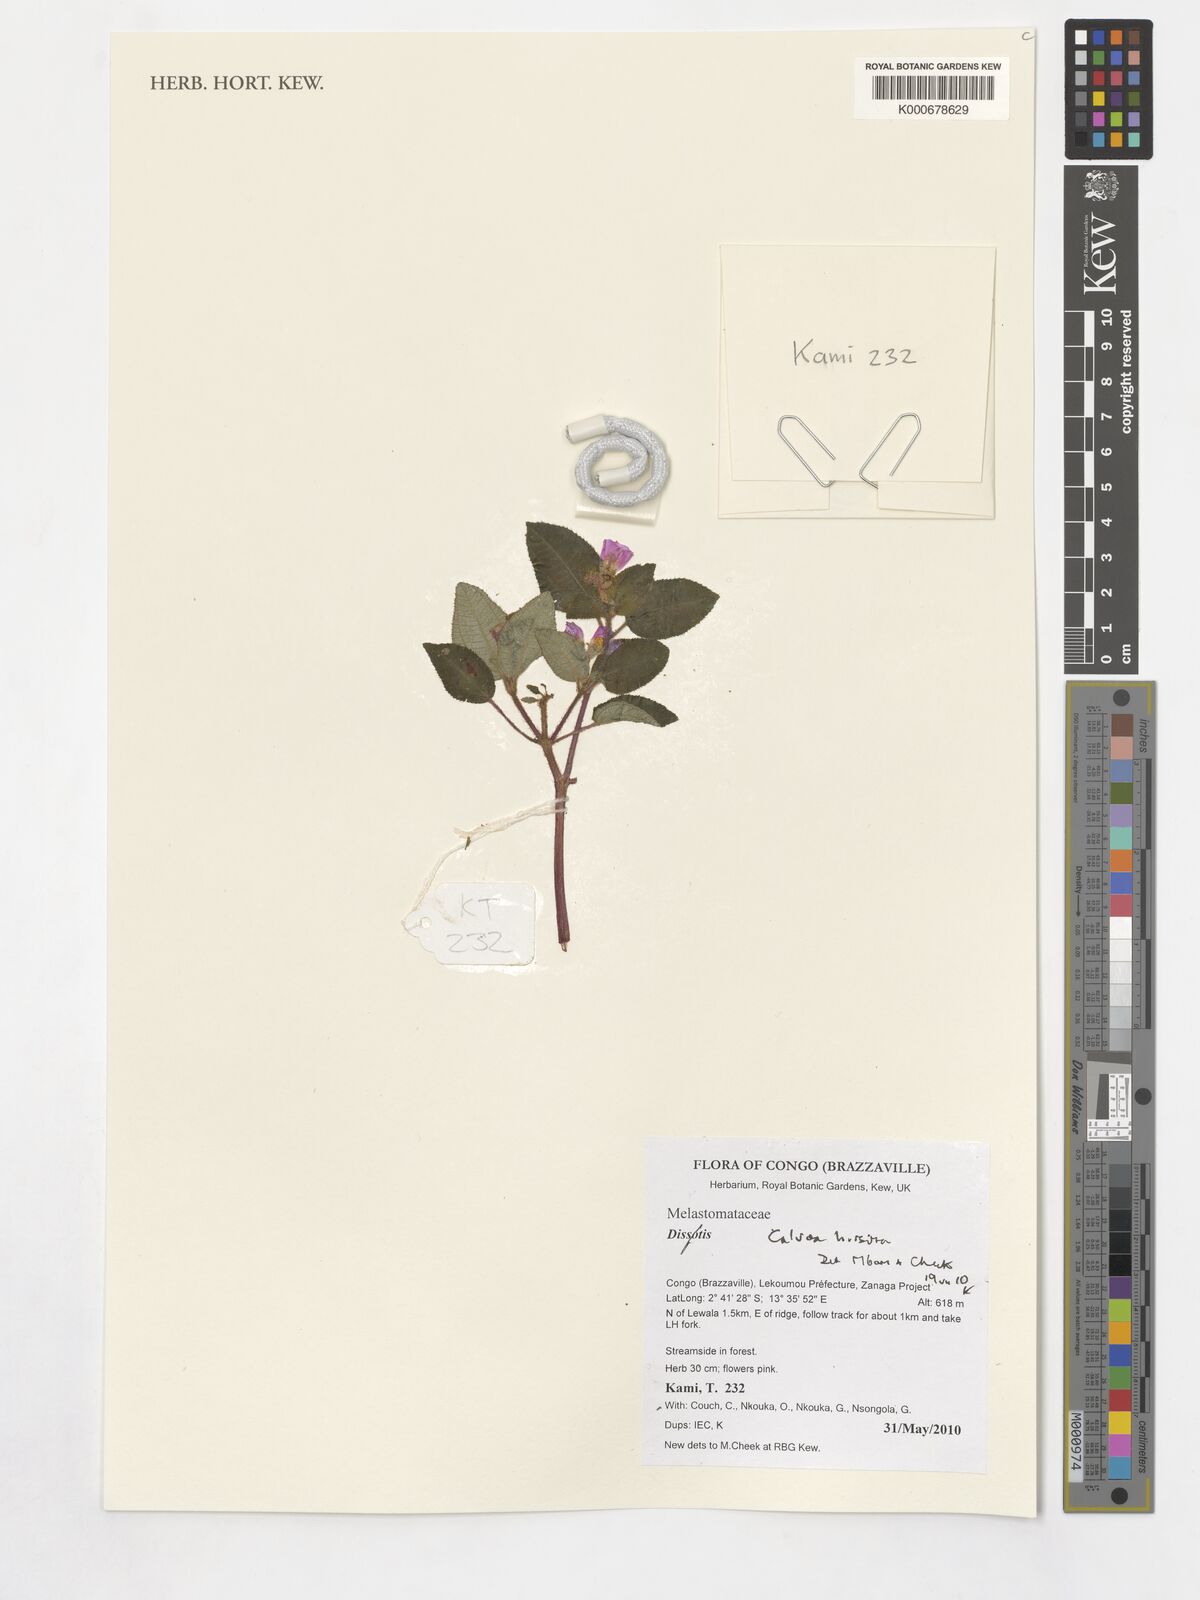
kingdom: Plantae
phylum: Tracheophyta
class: Magnoliopsida
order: Myrtales
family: Melastomataceae
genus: Calvoa
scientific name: Calvoa hirsuta
